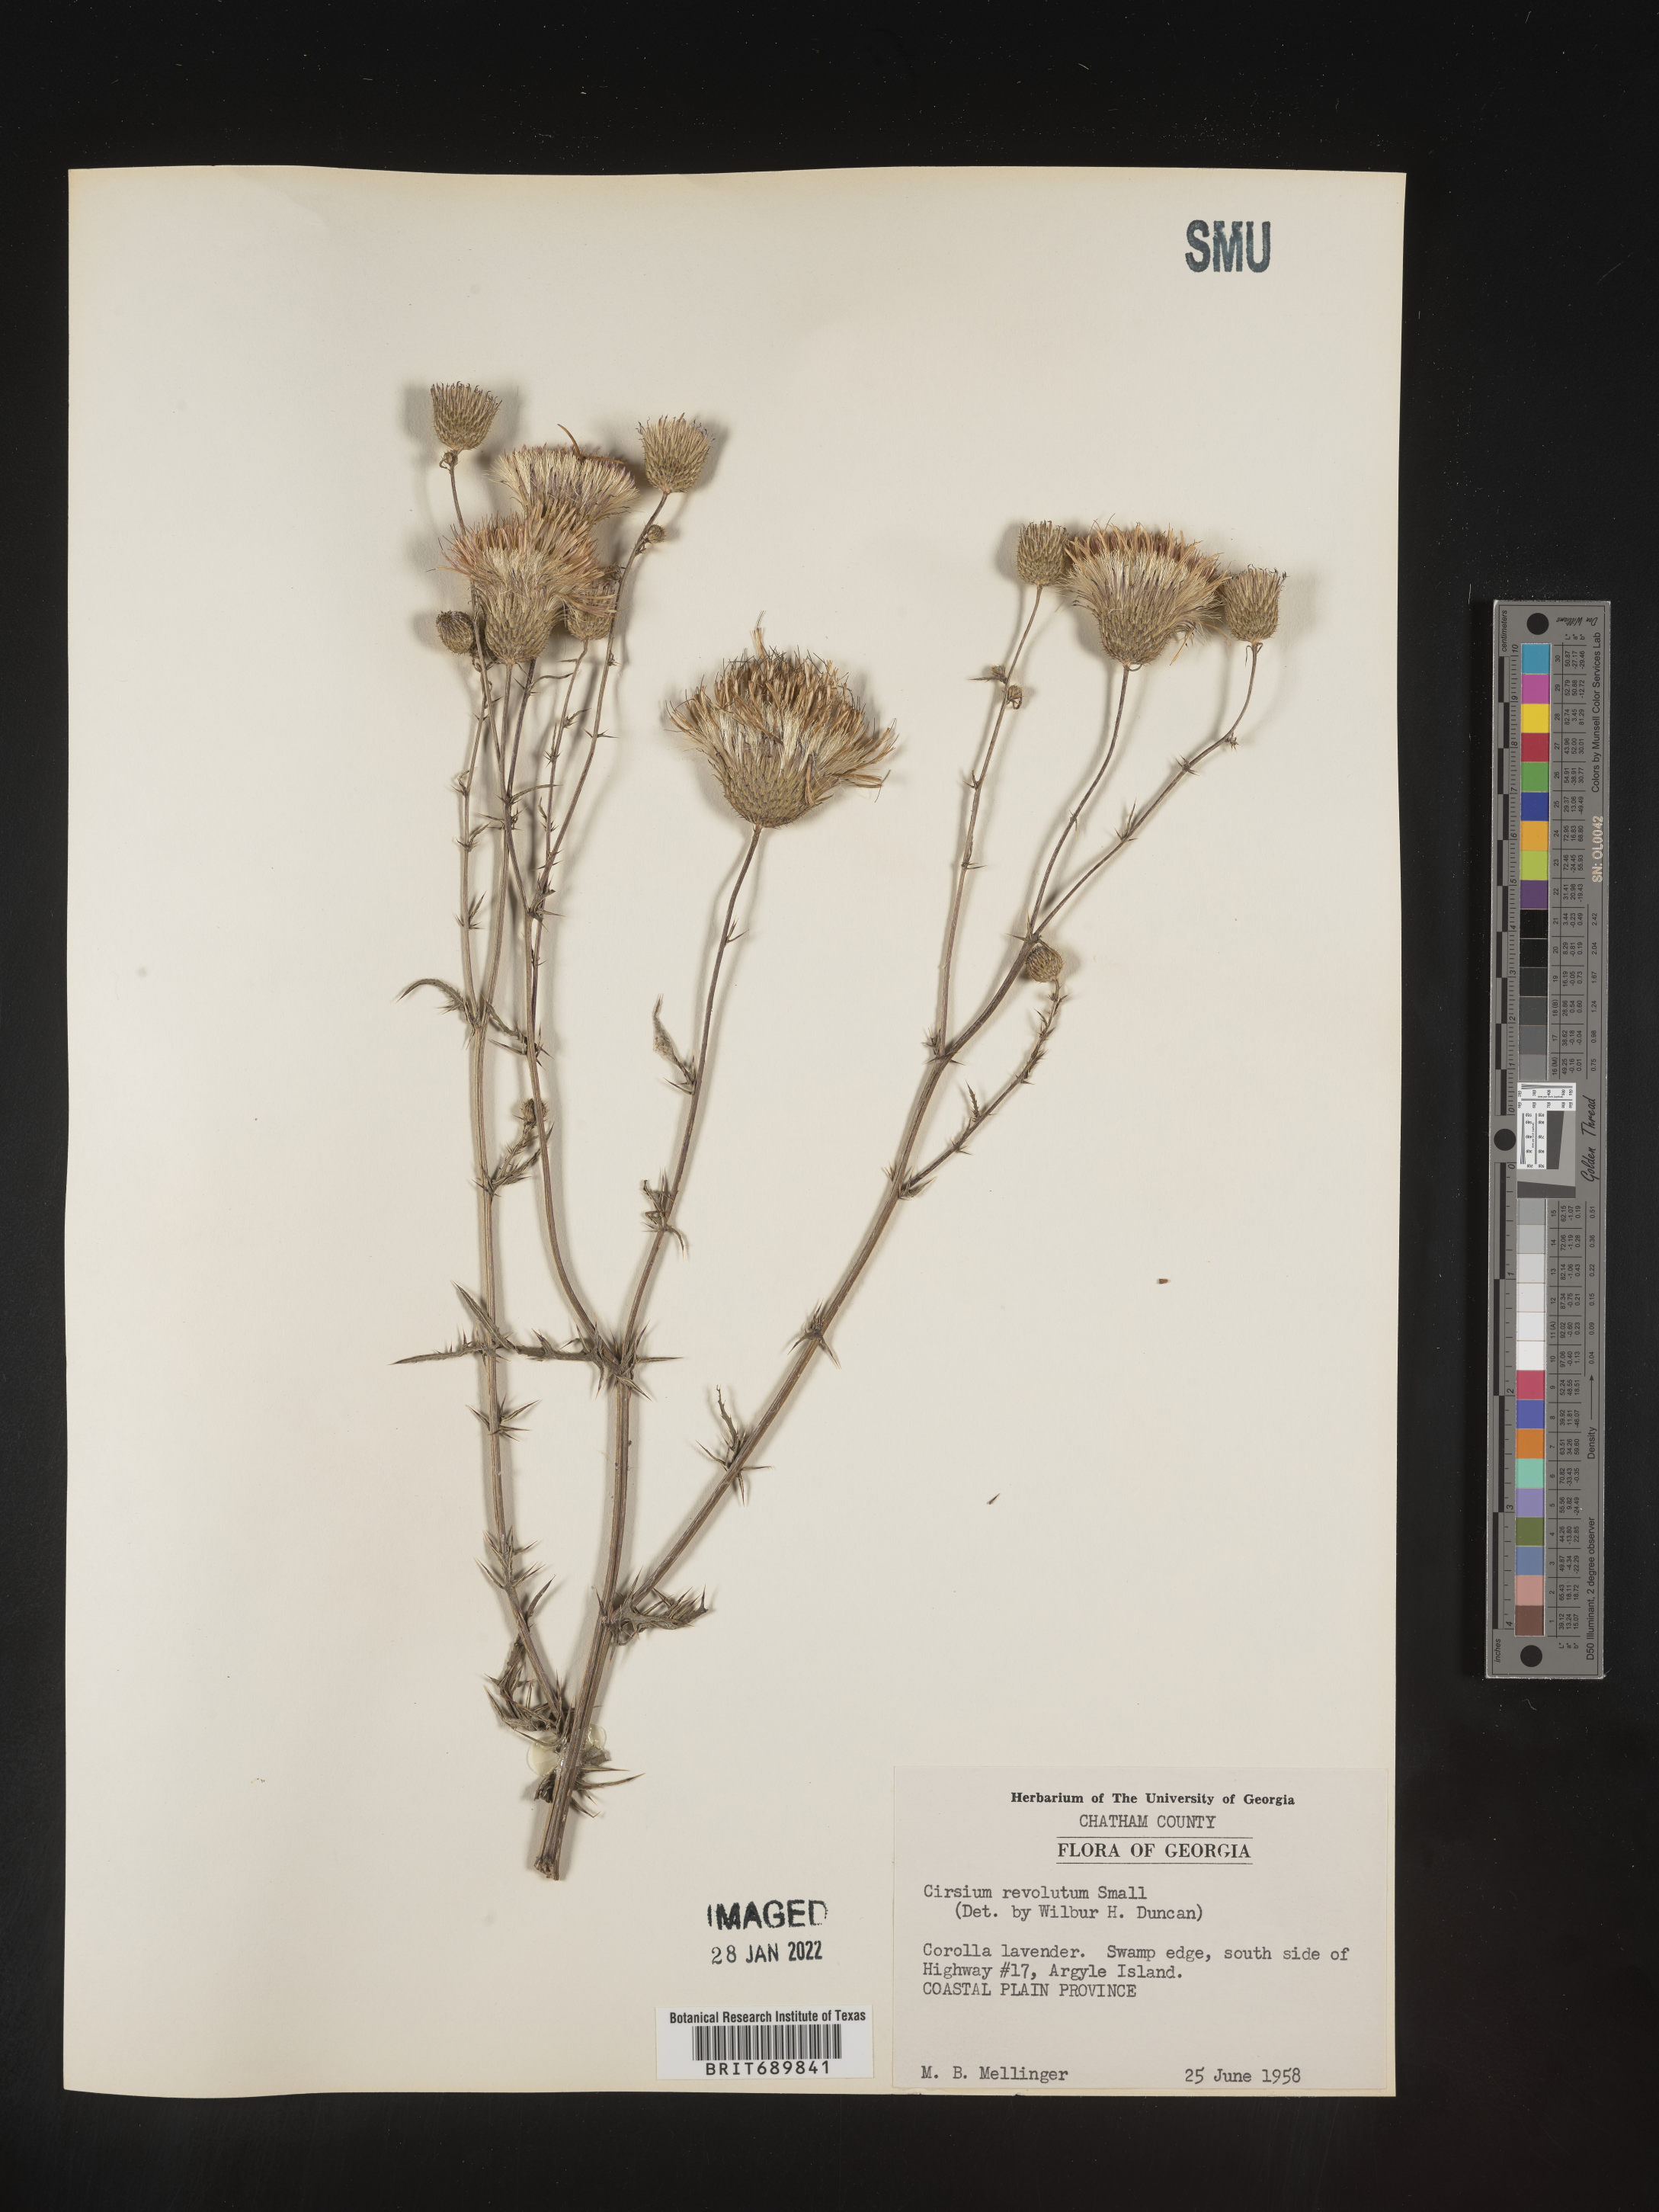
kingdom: Plantae
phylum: Tracheophyta
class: Magnoliopsida
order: Asterales
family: Asteraceae
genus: Cirsium
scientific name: Cirsium
